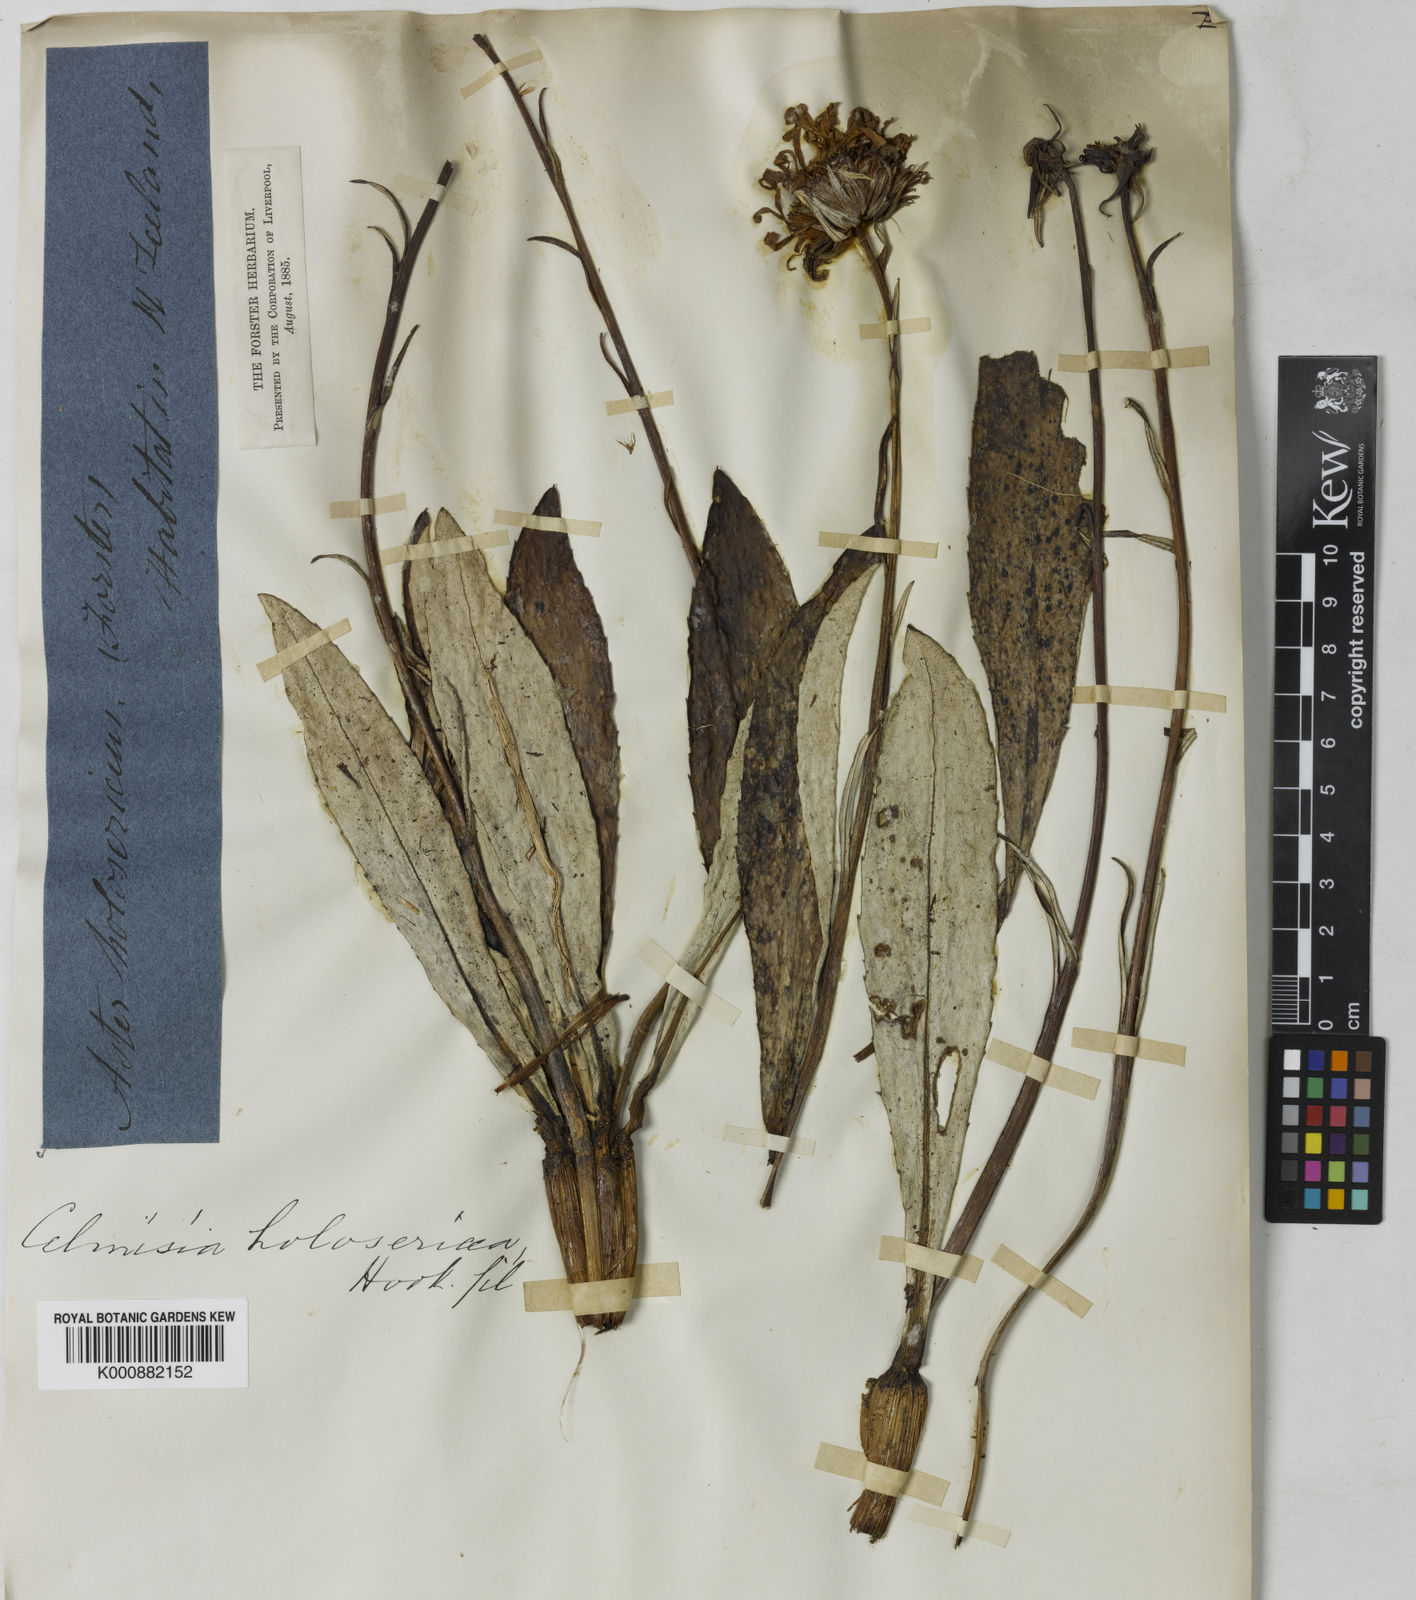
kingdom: Plantae
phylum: Tracheophyta
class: Magnoliopsida
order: Asterales
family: Asteraceae
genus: Celmisia
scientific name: Celmisia holosericea
